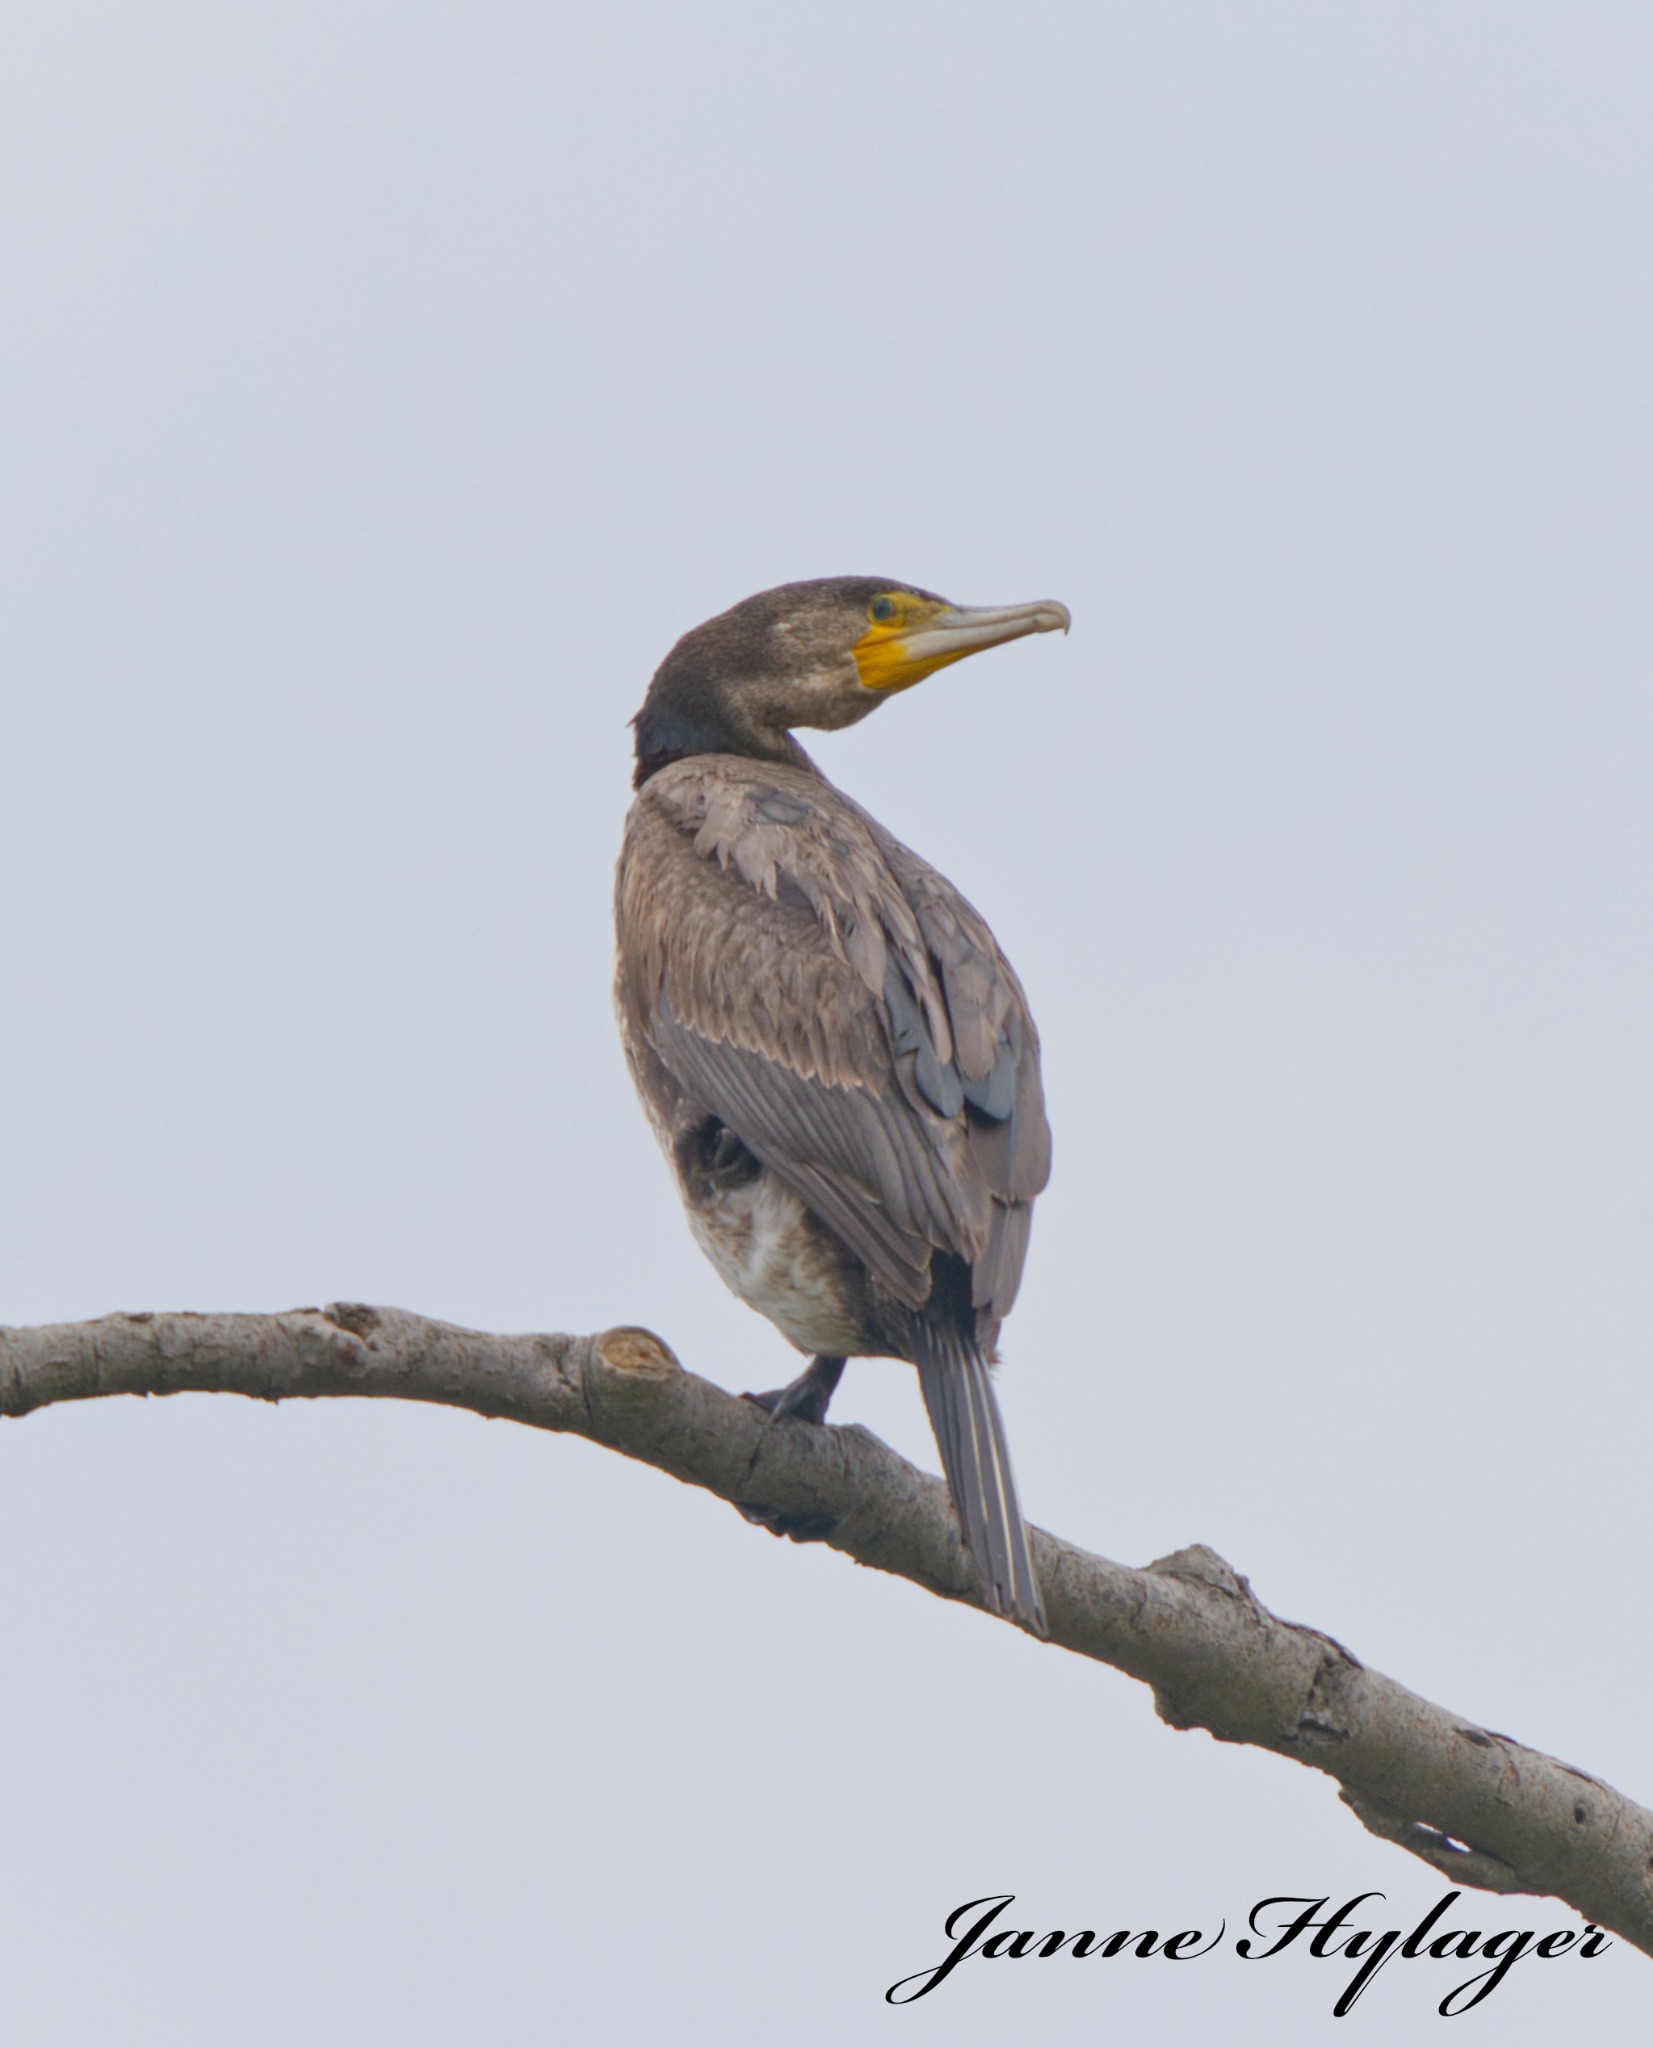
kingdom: Animalia
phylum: Chordata
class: Aves
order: Suliformes
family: Phalacrocoracidae
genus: Phalacrocorax
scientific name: Phalacrocorax carbo
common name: Skarv
